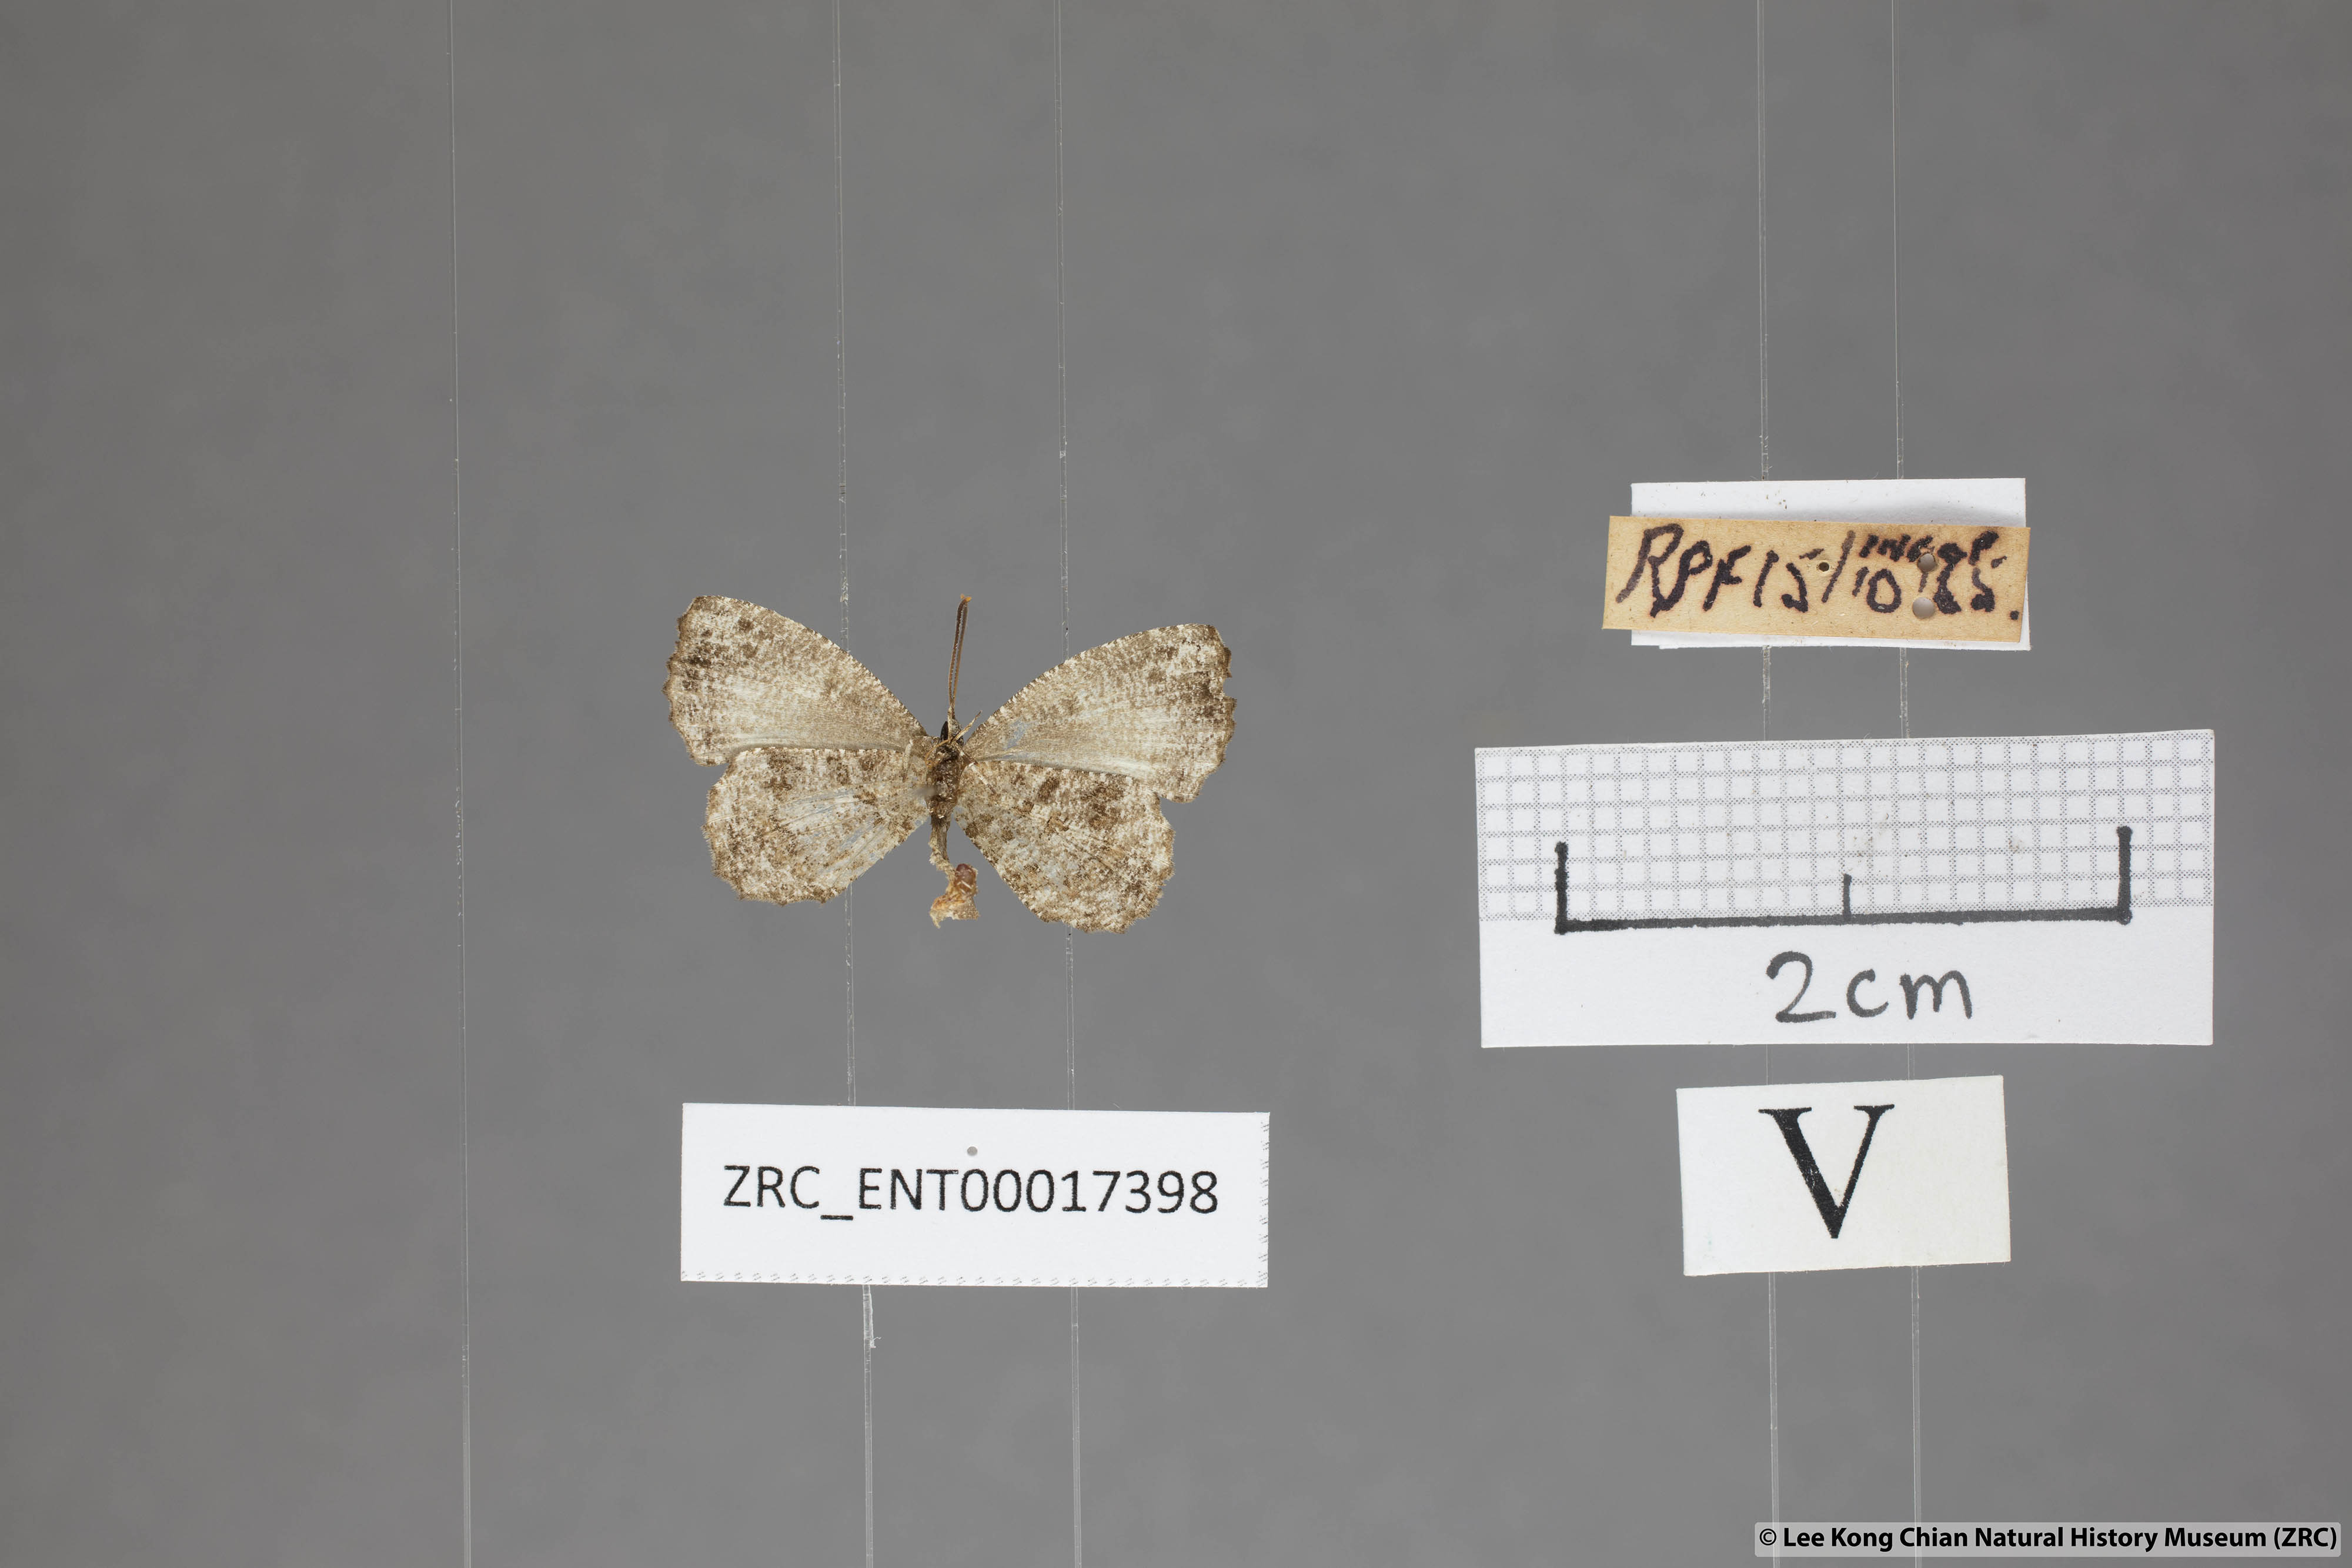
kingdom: Animalia
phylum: Arthropoda
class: Insecta
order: Lepidoptera
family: Lycaenidae
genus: Logania
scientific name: Logania marmorata
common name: Pale mottle
